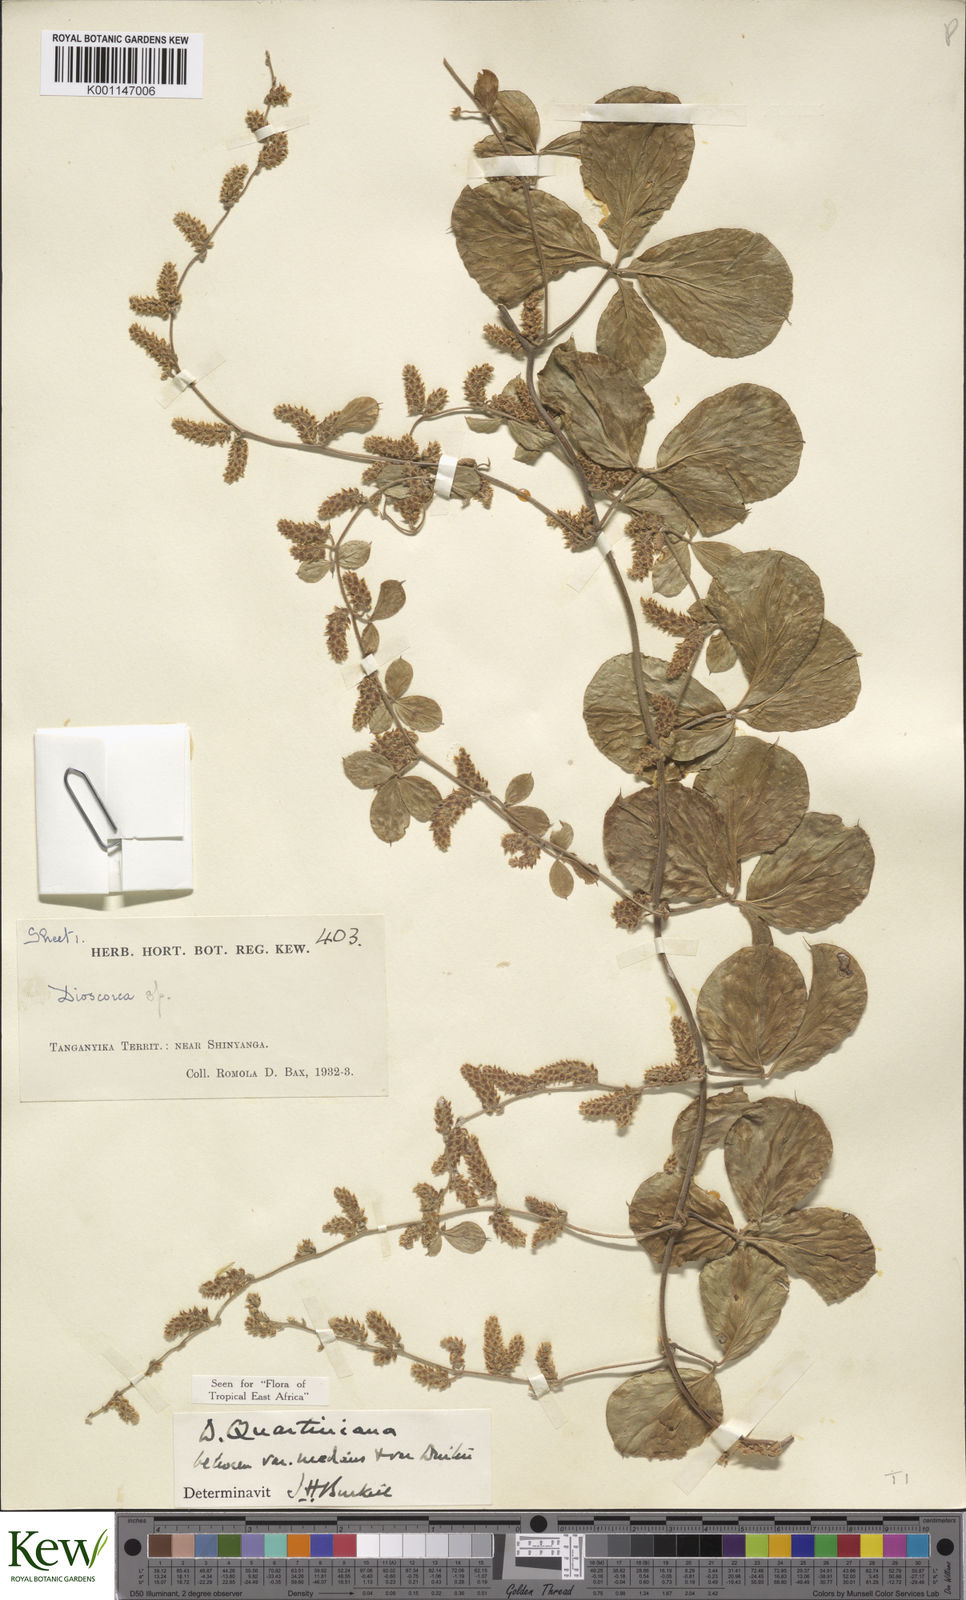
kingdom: Plantae
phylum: Tracheophyta
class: Liliopsida
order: Dioscoreales
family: Dioscoreaceae
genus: Dioscorea
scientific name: Dioscorea quartiniana
